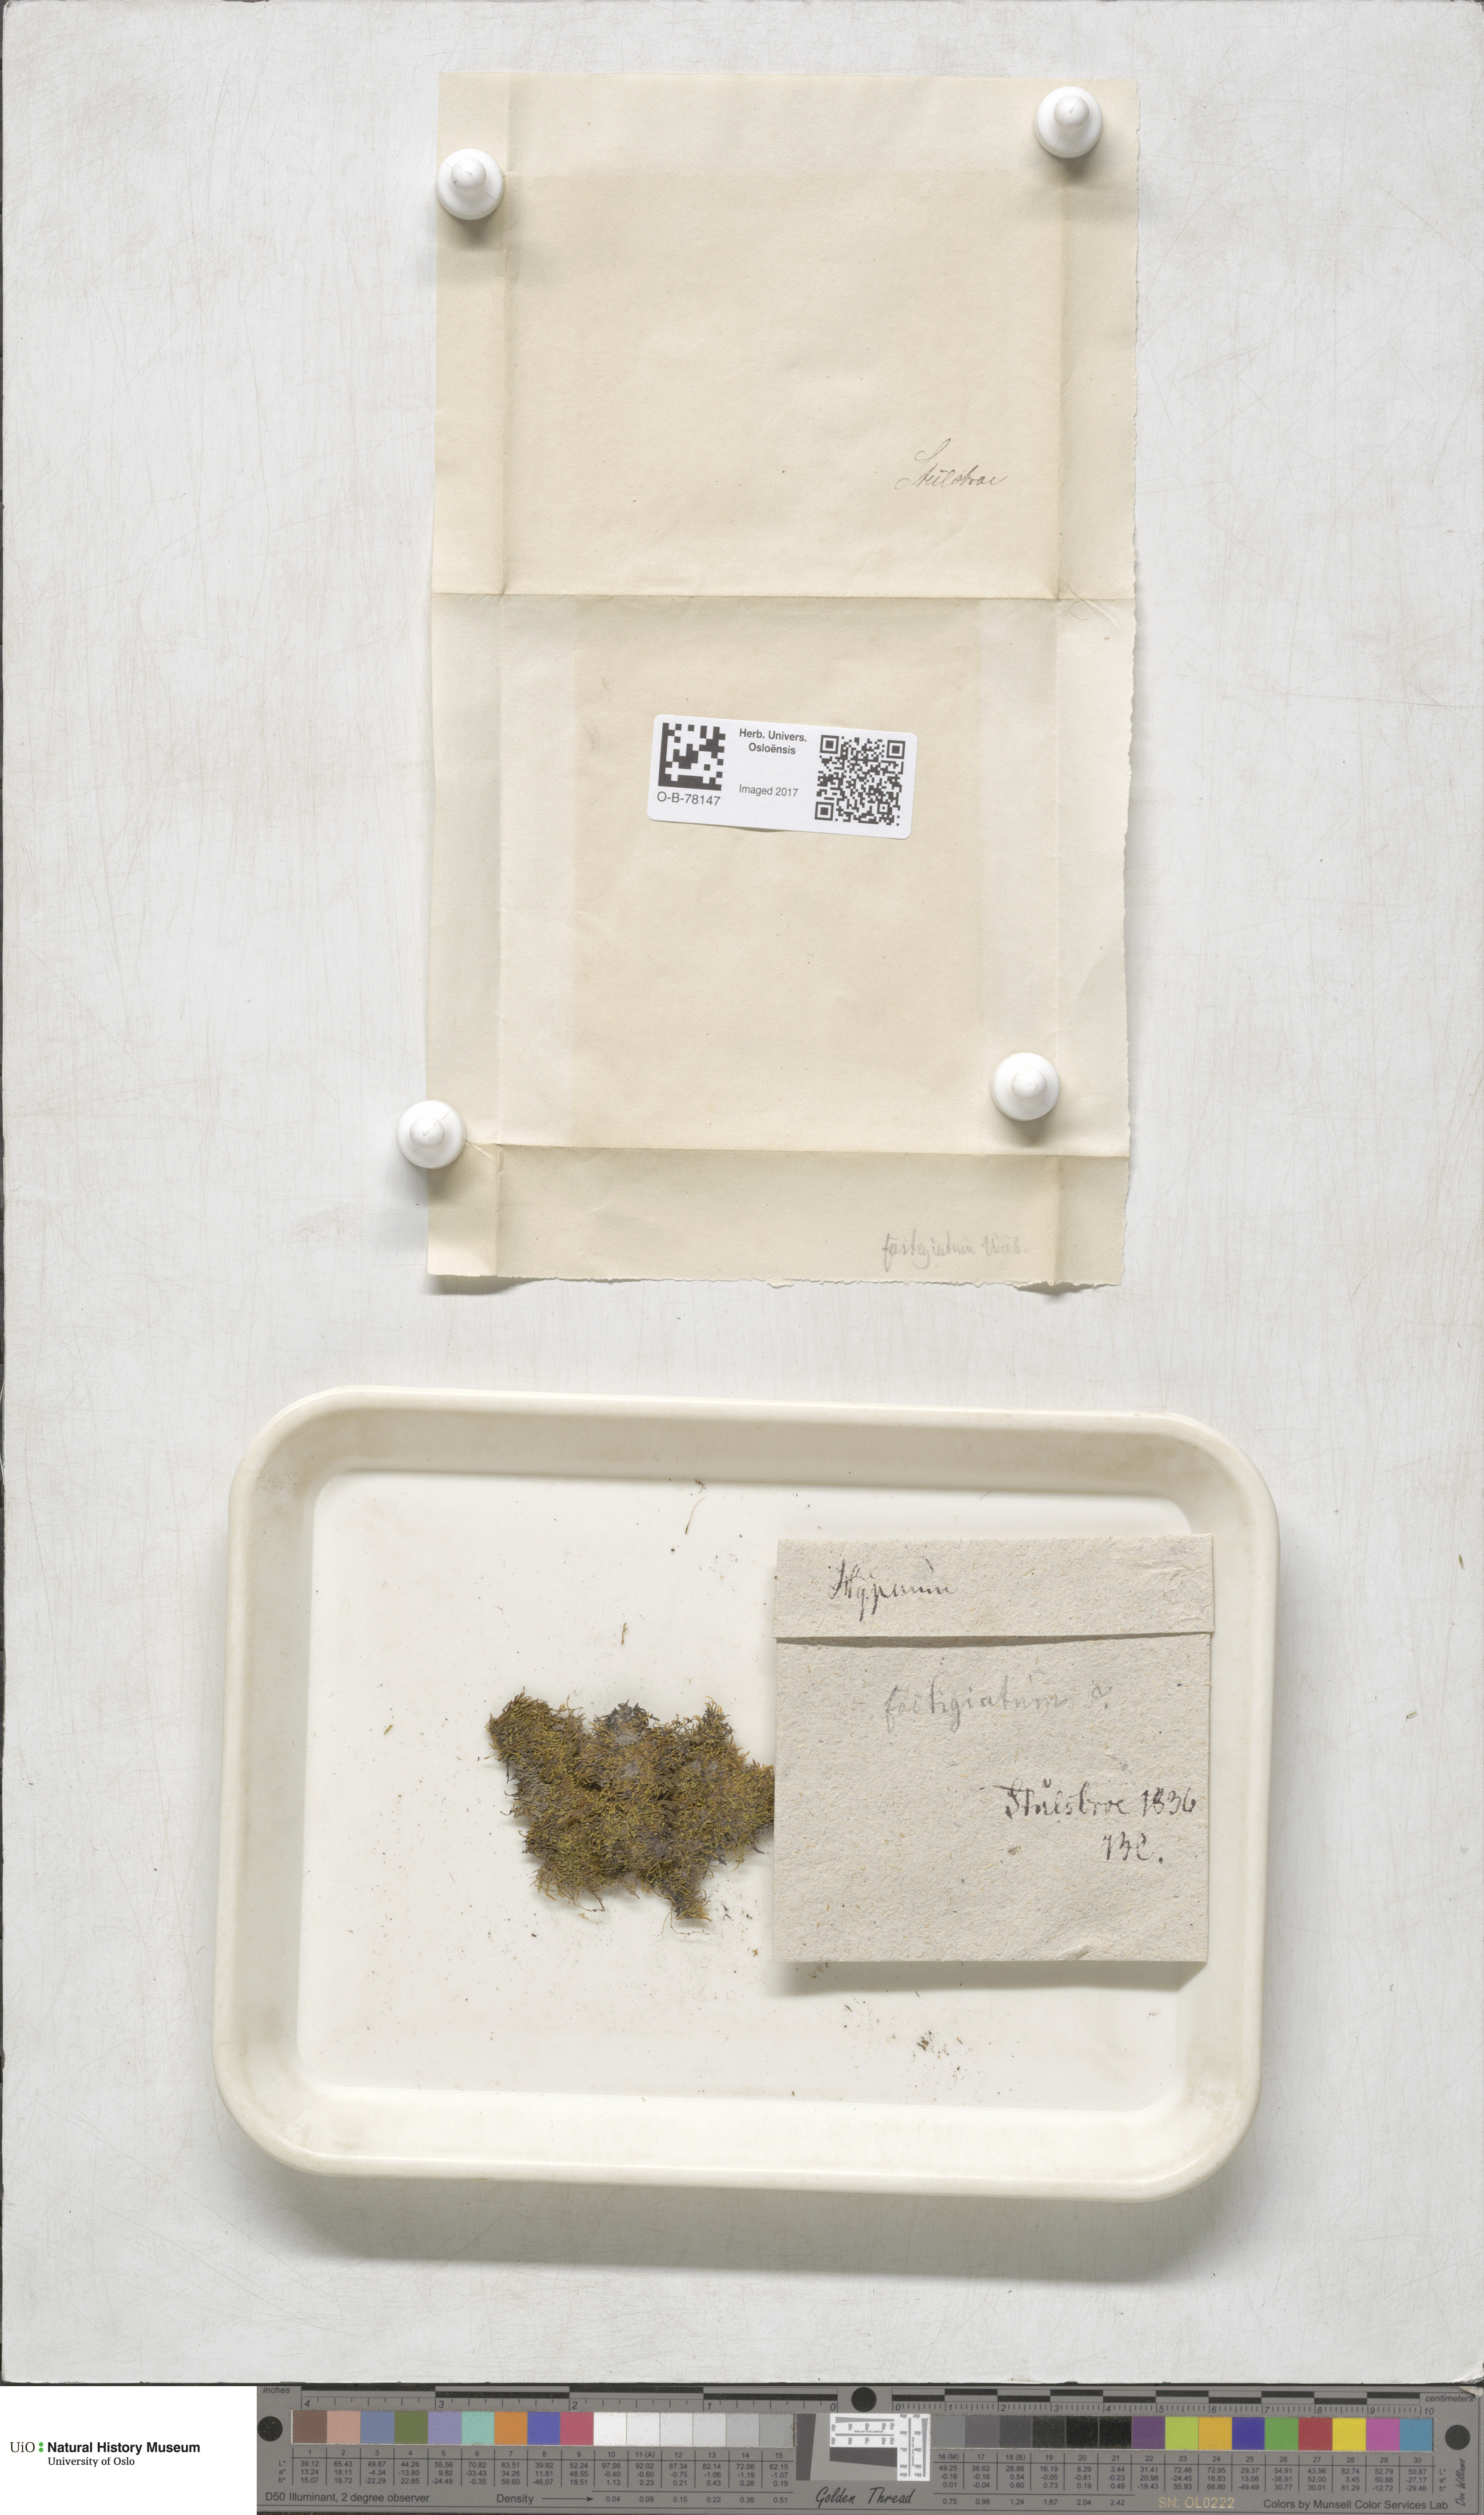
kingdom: Plantae
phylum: Bryophyta
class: Bryopsida
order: Hypnales
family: Amblystegiaceae
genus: Drepanium
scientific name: Drepanium fastigiatum
